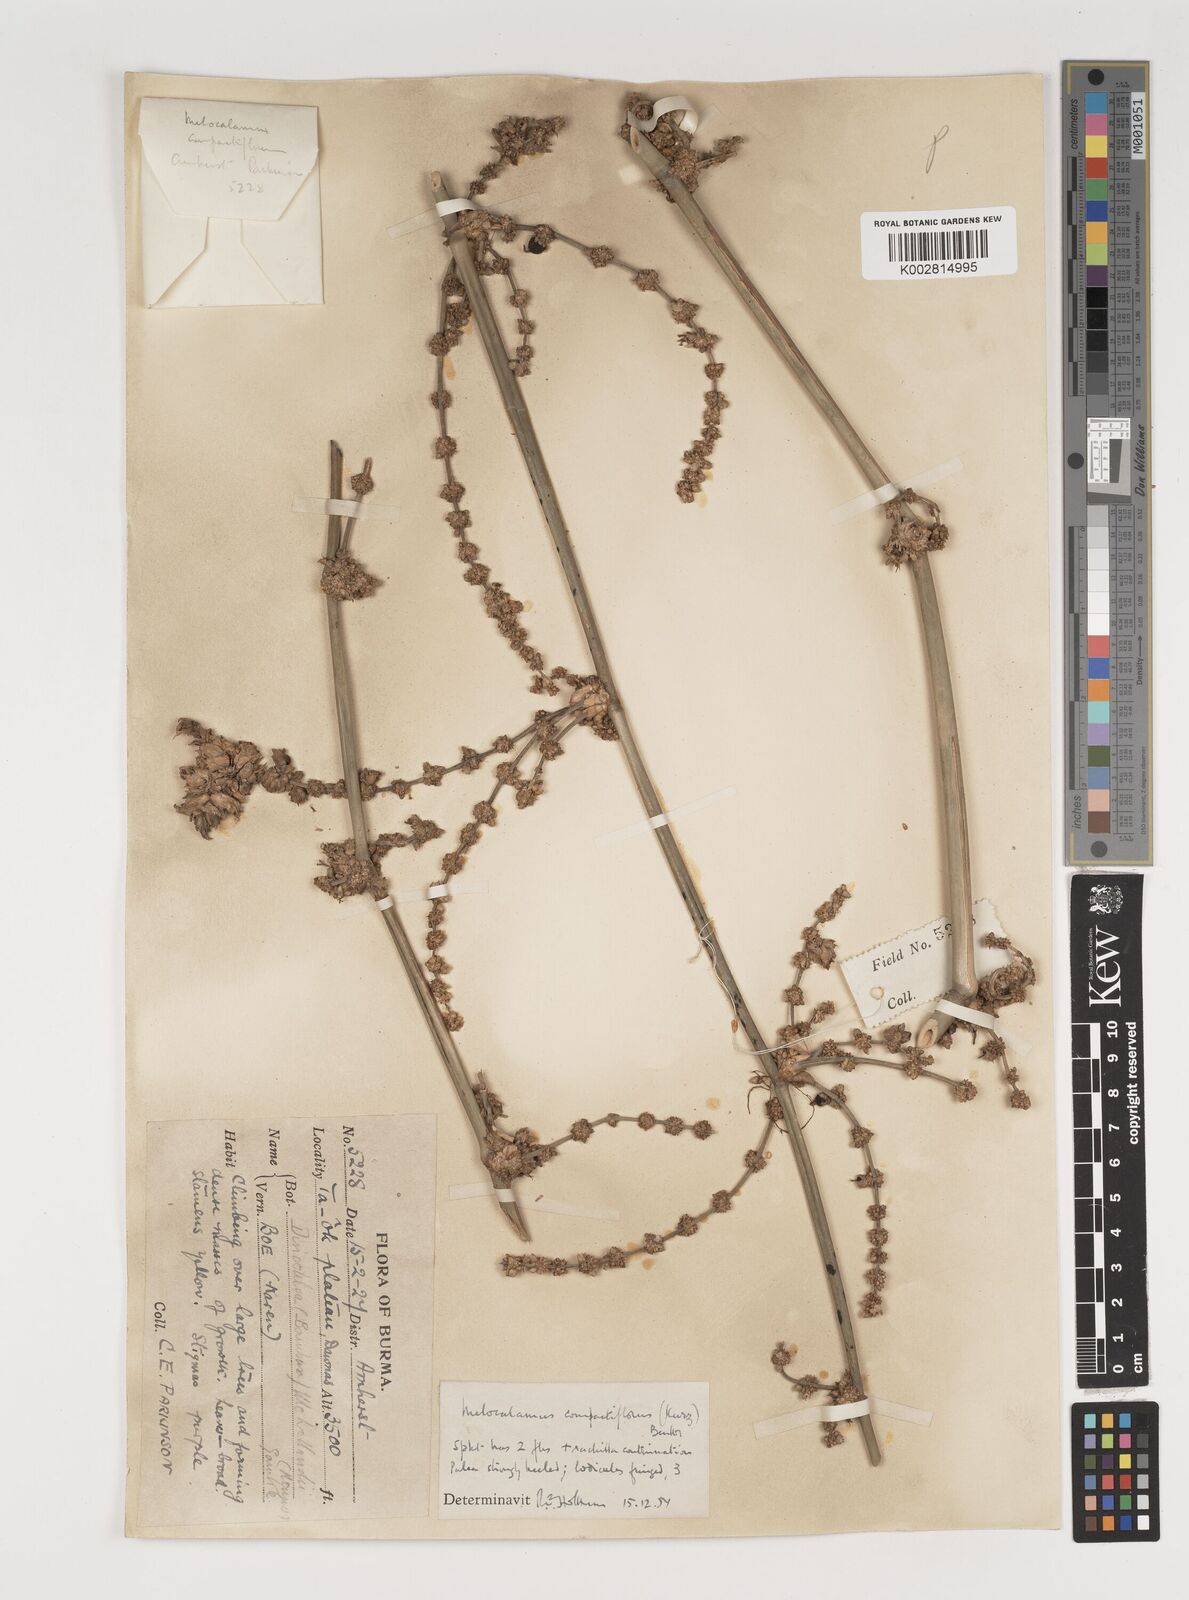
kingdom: Plantae
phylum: Tracheophyta
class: Liliopsida
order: Poales
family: Poaceae
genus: Melocalamus
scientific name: Melocalamus compactiflorus
